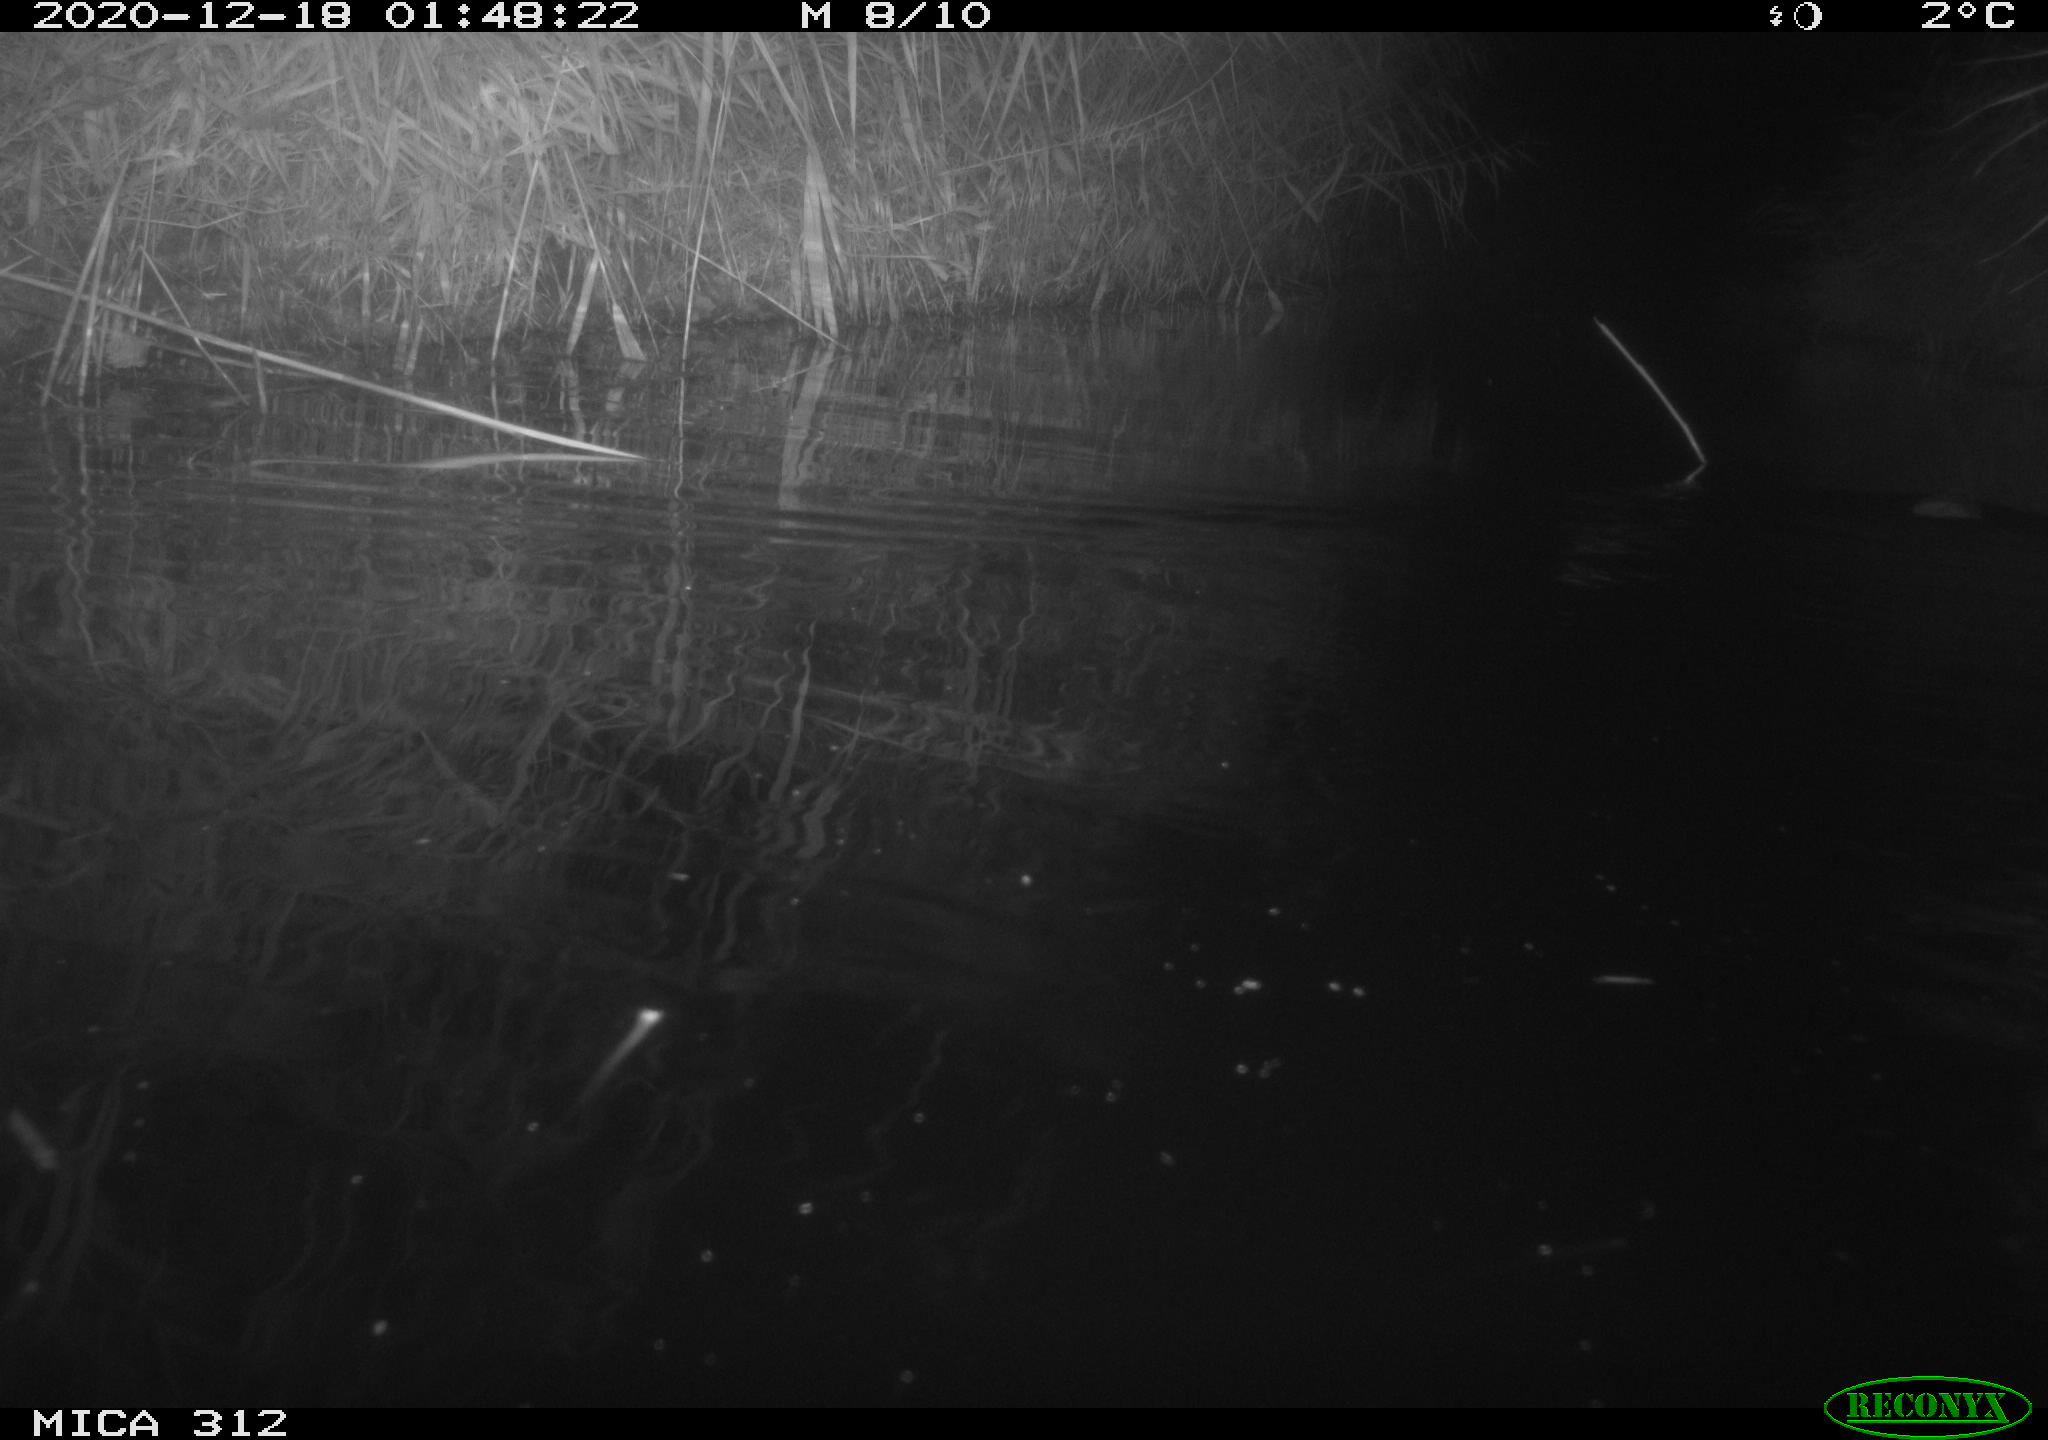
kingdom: Animalia
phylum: Chordata
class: Mammalia
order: Rodentia
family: Muridae
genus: Rattus
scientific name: Rattus norvegicus
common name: Brown rat
